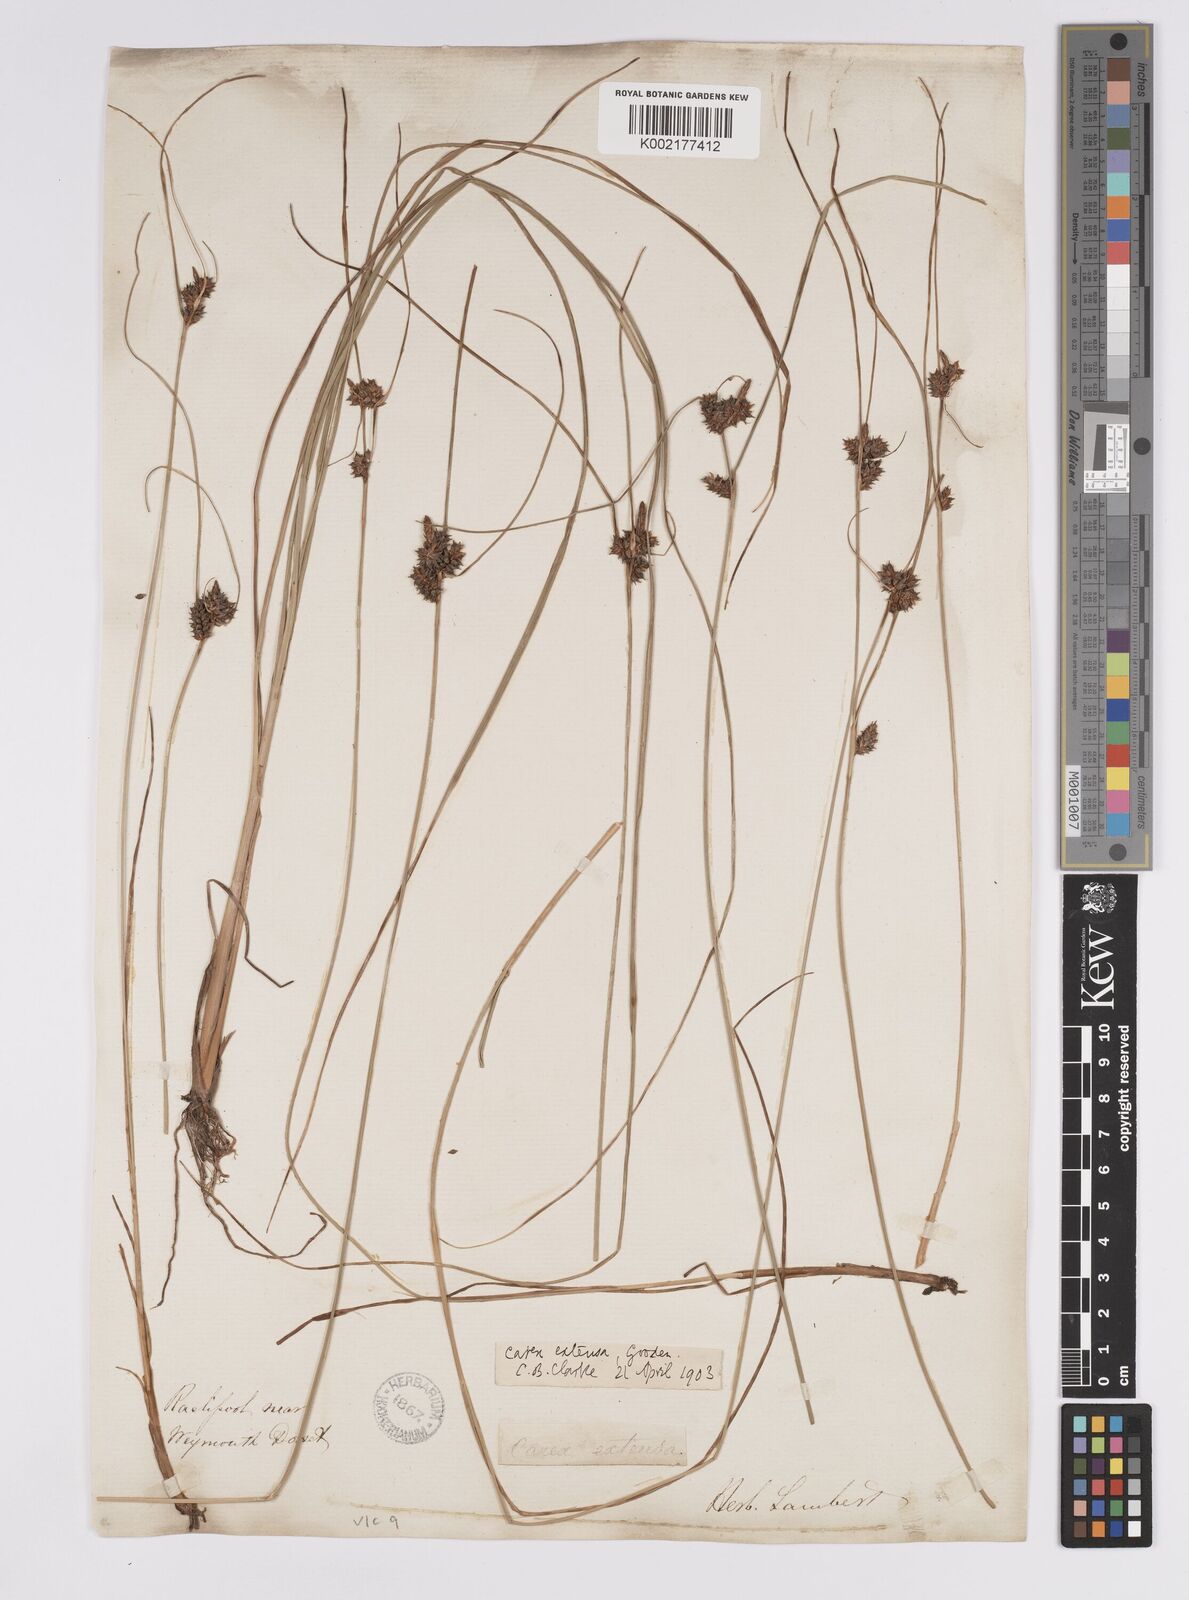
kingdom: Plantae
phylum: Tracheophyta
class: Liliopsida
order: Poales
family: Cyperaceae
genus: Carex
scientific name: Carex extensa
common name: Long-bracted sedge
